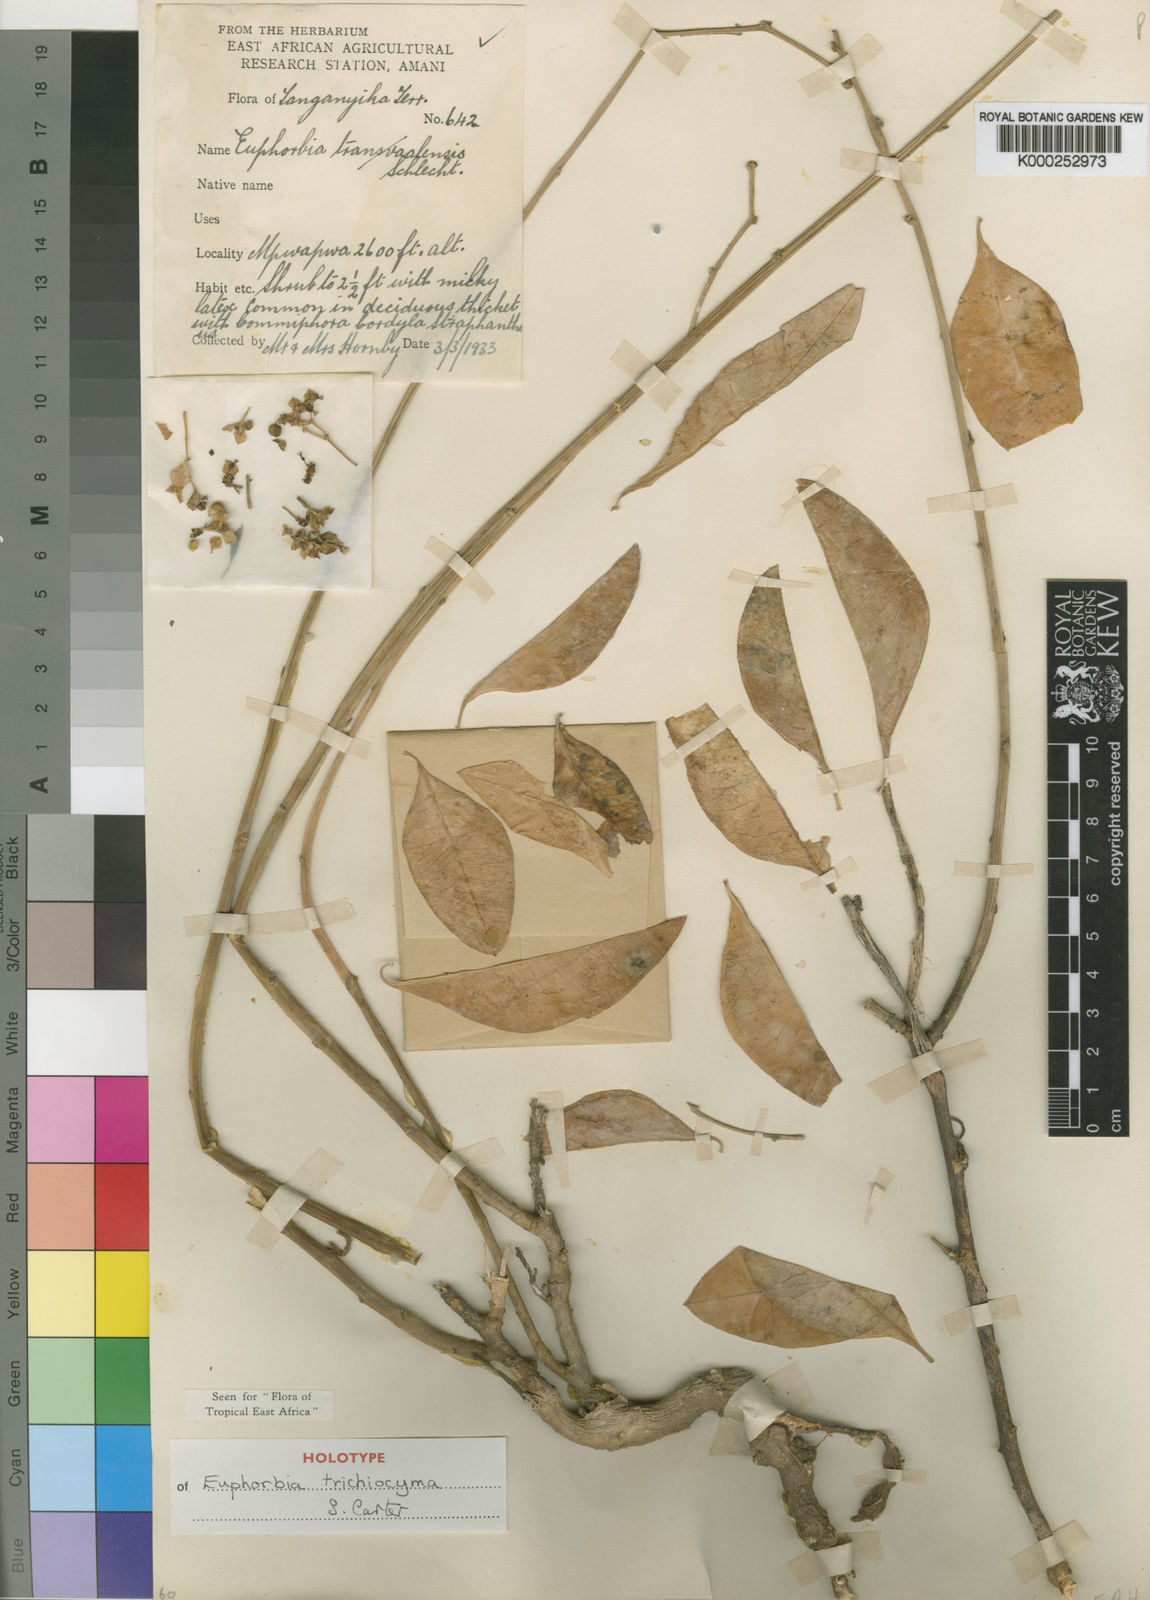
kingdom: Plantae
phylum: Tracheophyta
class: Magnoliopsida
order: Malpighiales
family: Euphorbiaceae
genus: Euphorbia
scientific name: Euphorbia trichiocyma
